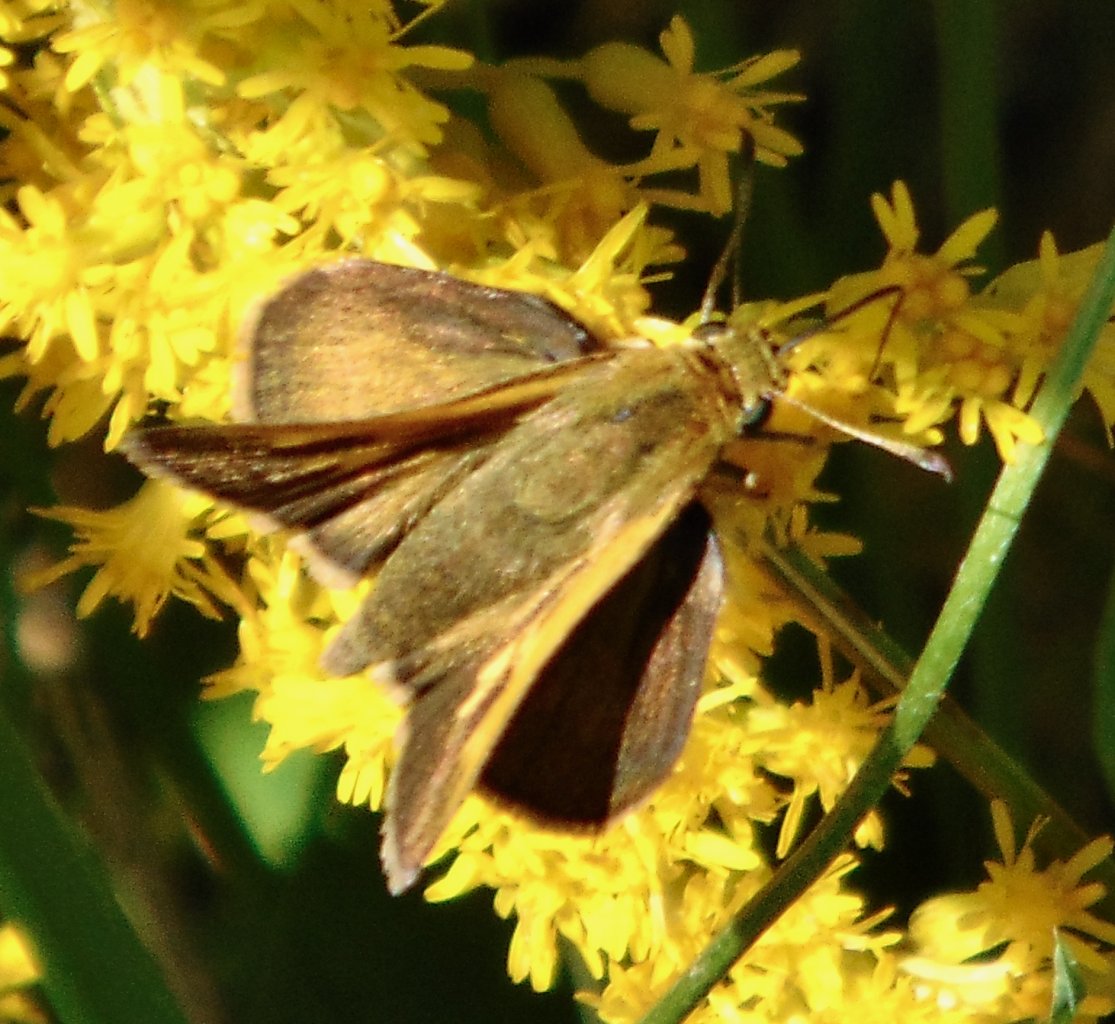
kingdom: Animalia
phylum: Arthropoda
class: Insecta
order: Lepidoptera
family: Hesperiidae
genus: Polites
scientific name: Polites themistocles
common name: Tawny-edged Skipper
